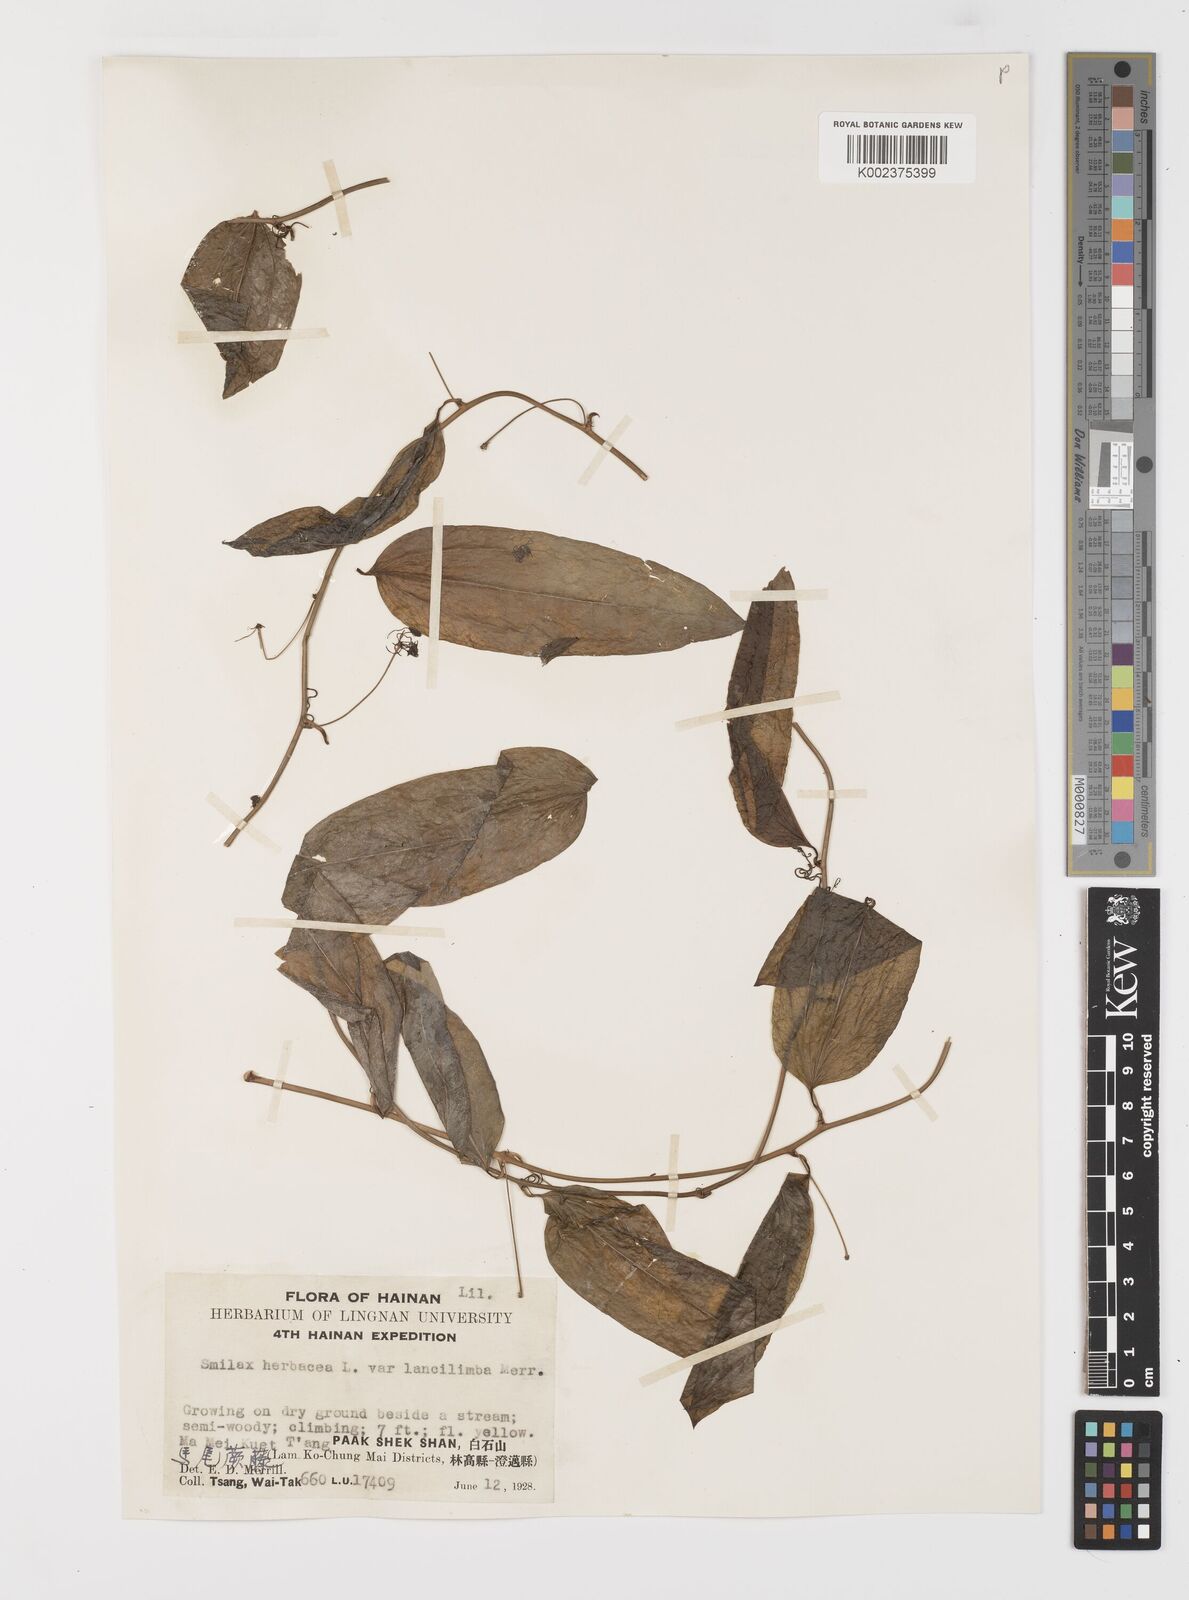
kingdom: Plantae
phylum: Tracheophyta
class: Liliopsida
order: Liliales
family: Smilacaceae
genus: Smilax
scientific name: Smilax riparia
